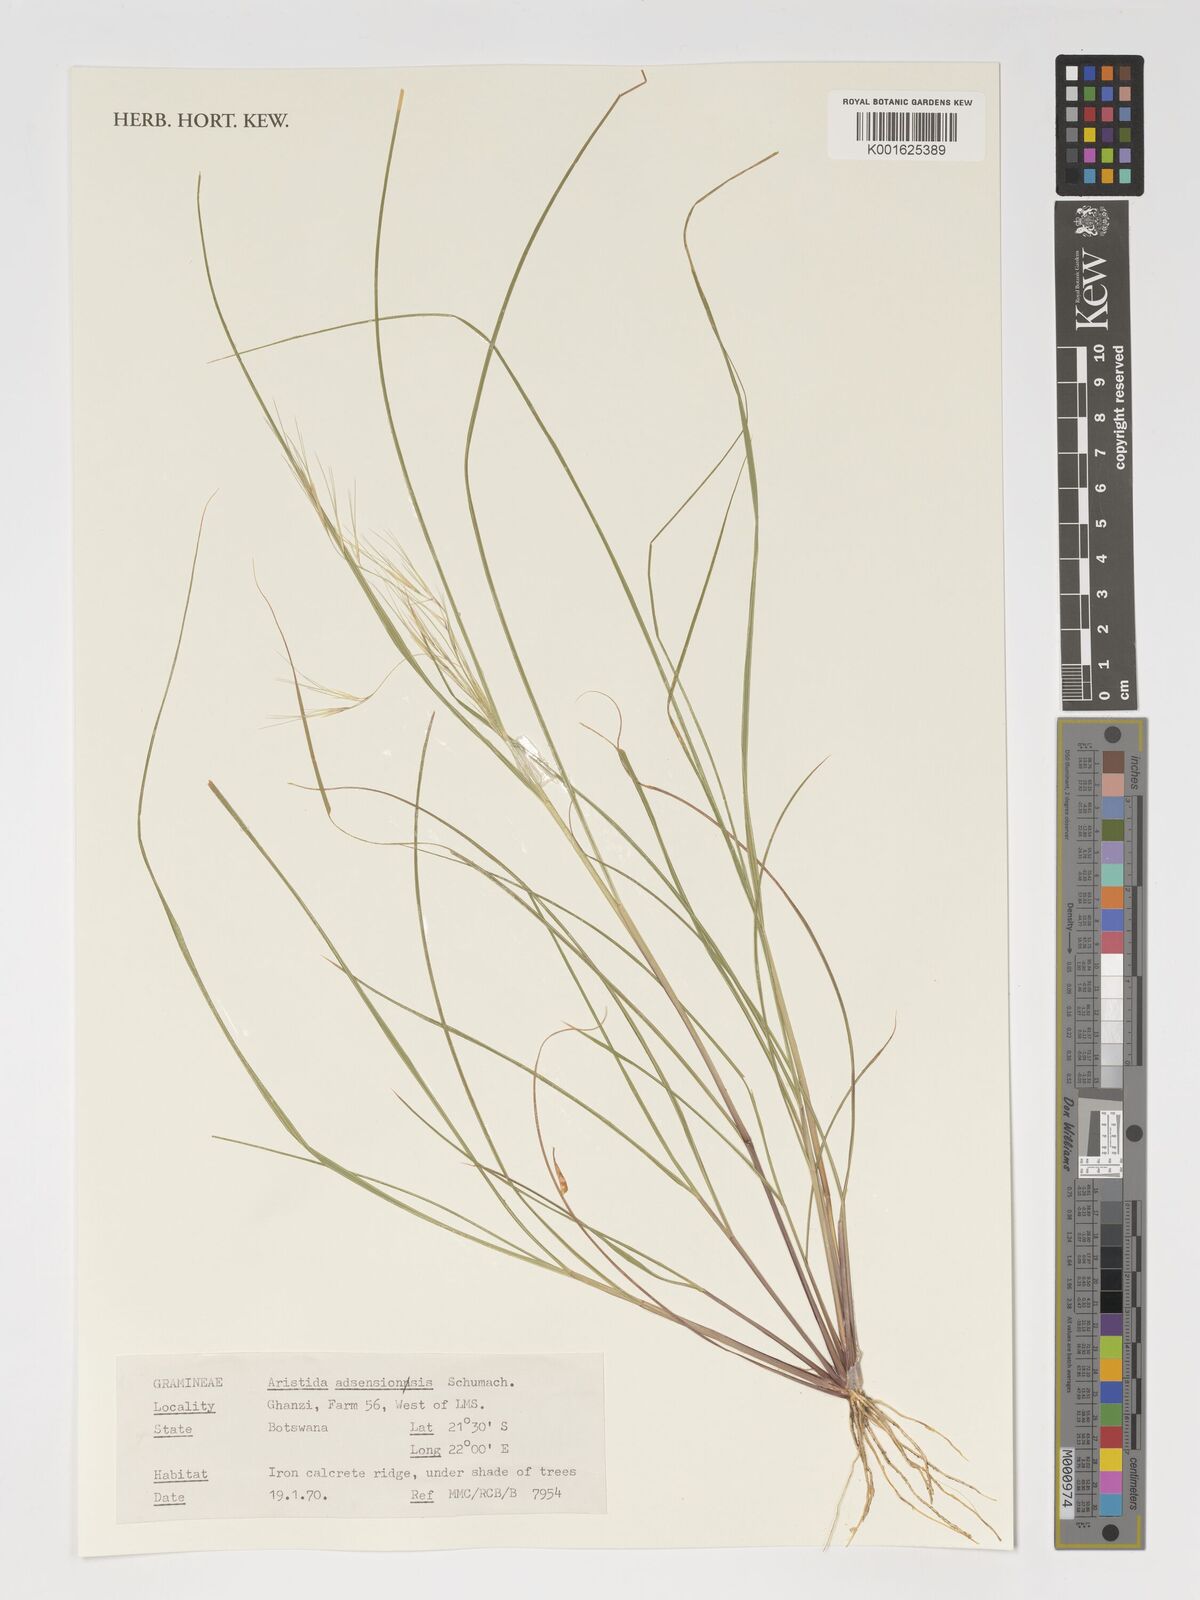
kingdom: Plantae
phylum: Tracheophyta
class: Liliopsida
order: Poales
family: Poaceae
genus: Aristida
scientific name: Aristida adscensionis
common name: Sixweeks threeawn
